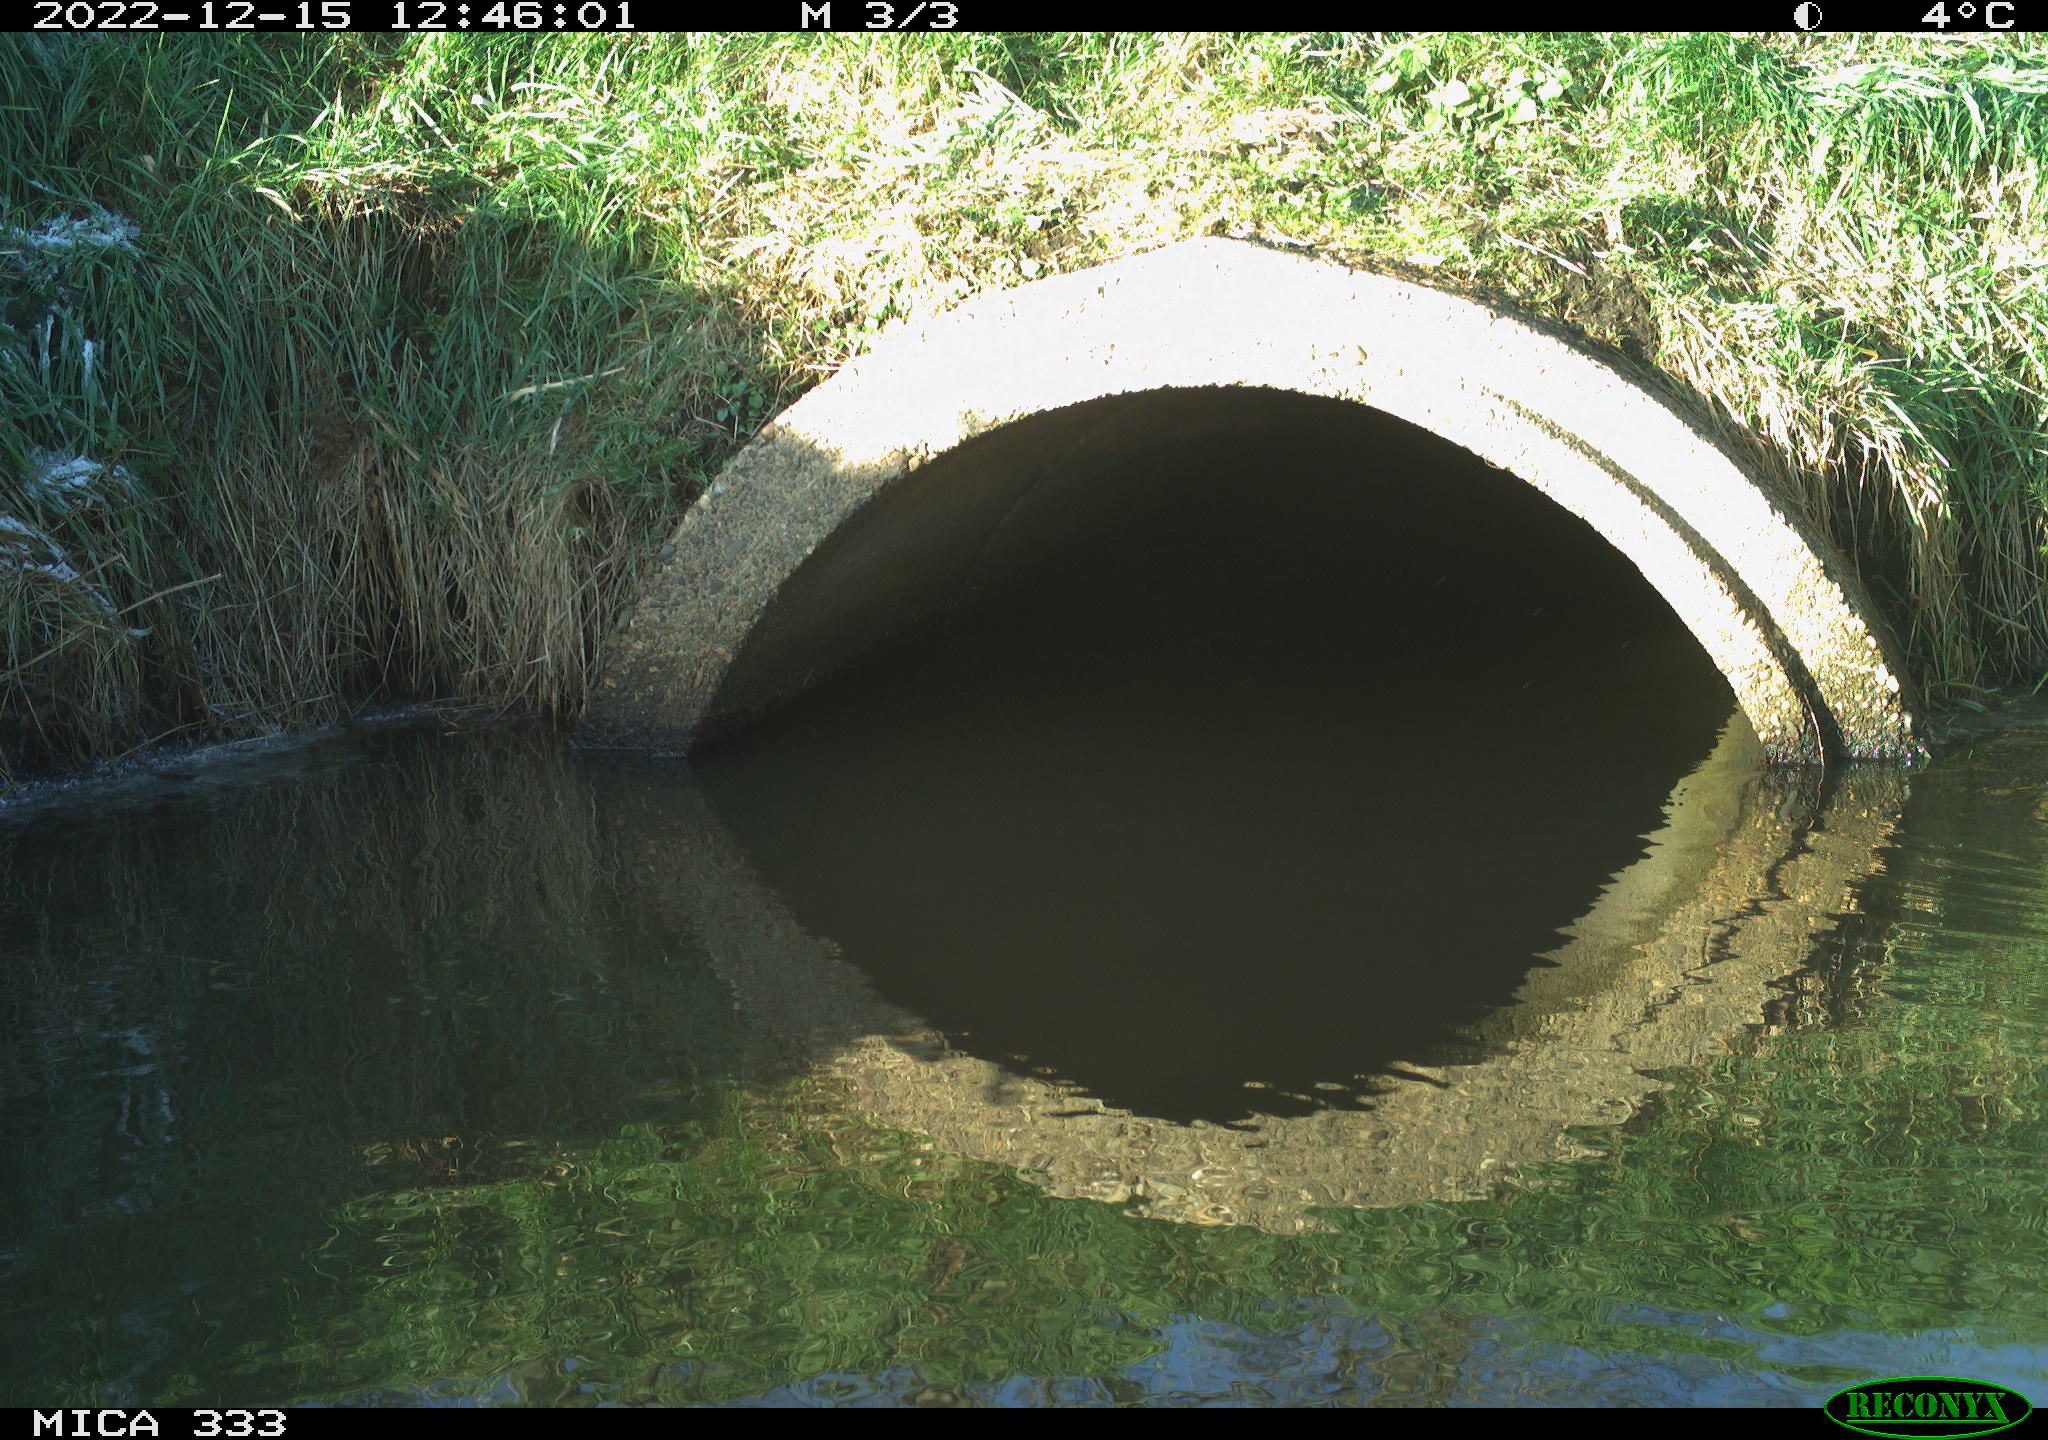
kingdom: Animalia
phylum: Chordata
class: Aves
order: Gruiformes
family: Rallidae
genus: Gallinula
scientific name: Gallinula chloropus
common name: Common moorhen
